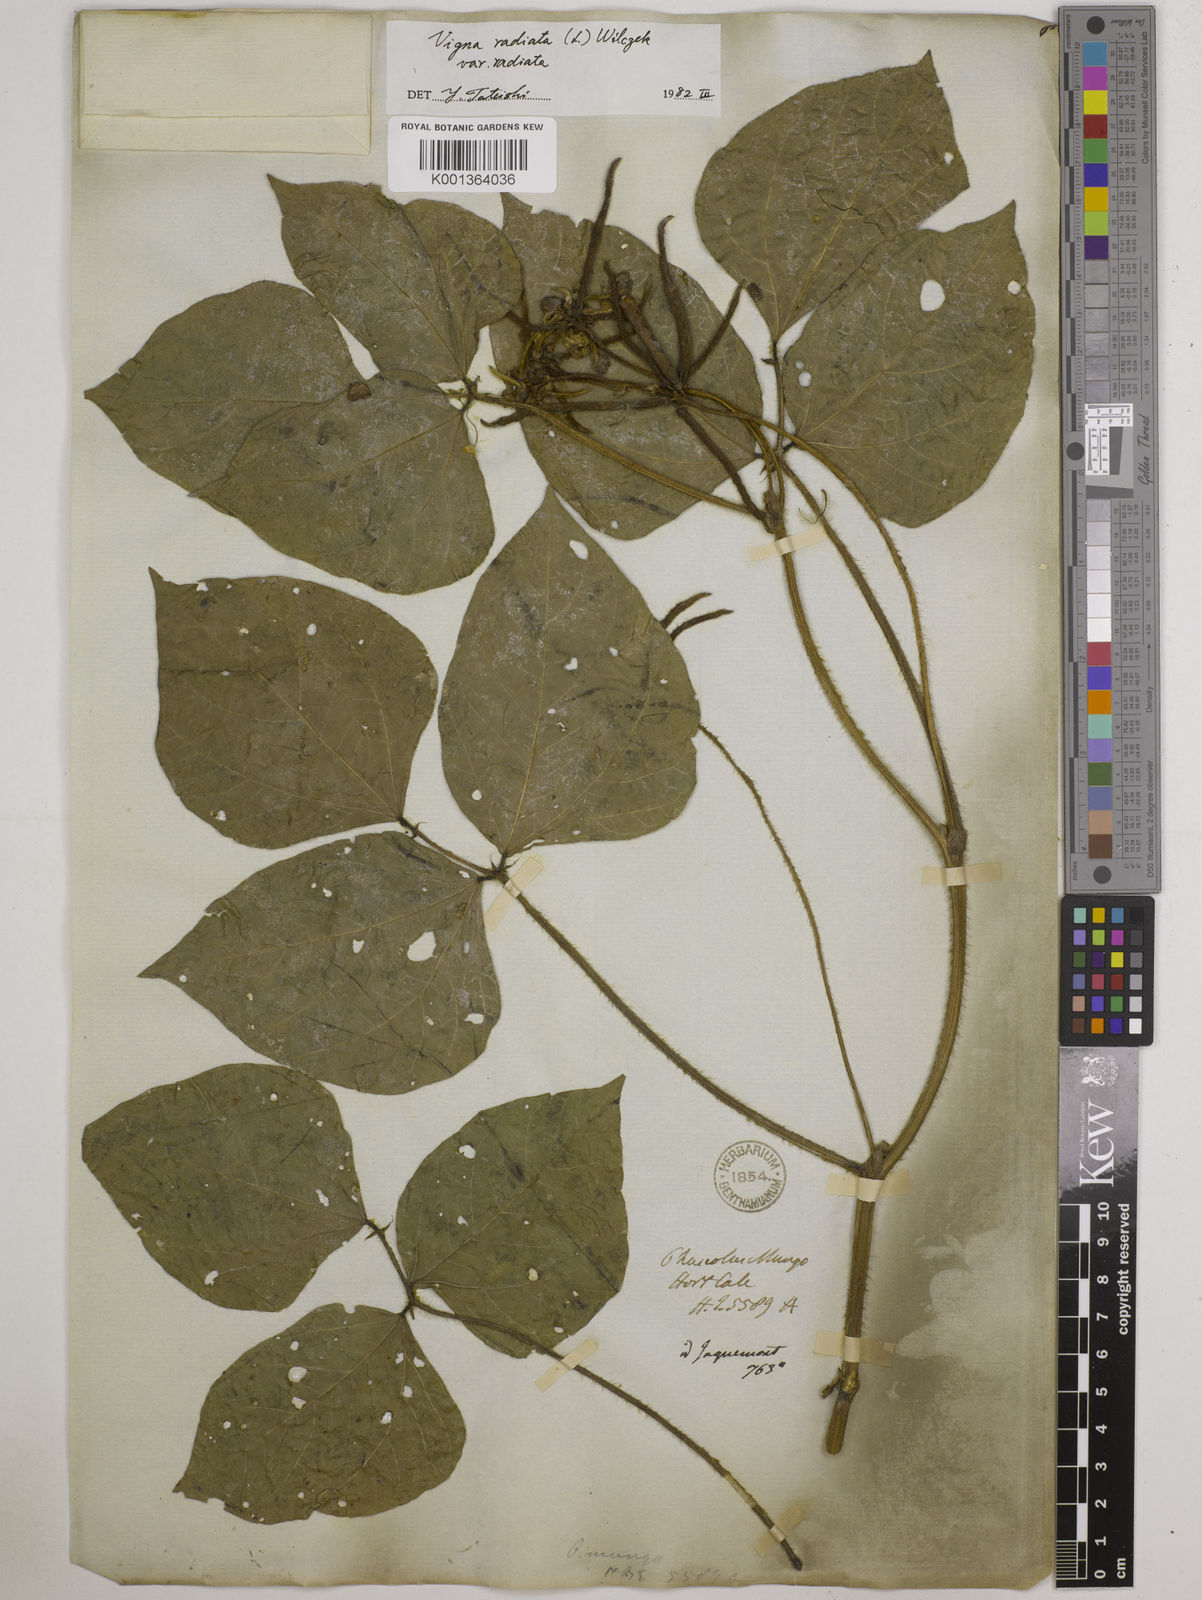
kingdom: Plantae
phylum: Tracheophyta
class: Magnoliopsida
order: Fabales
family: Fabaceae
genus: Vigna
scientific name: Vigna radiata
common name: Mung-bean
